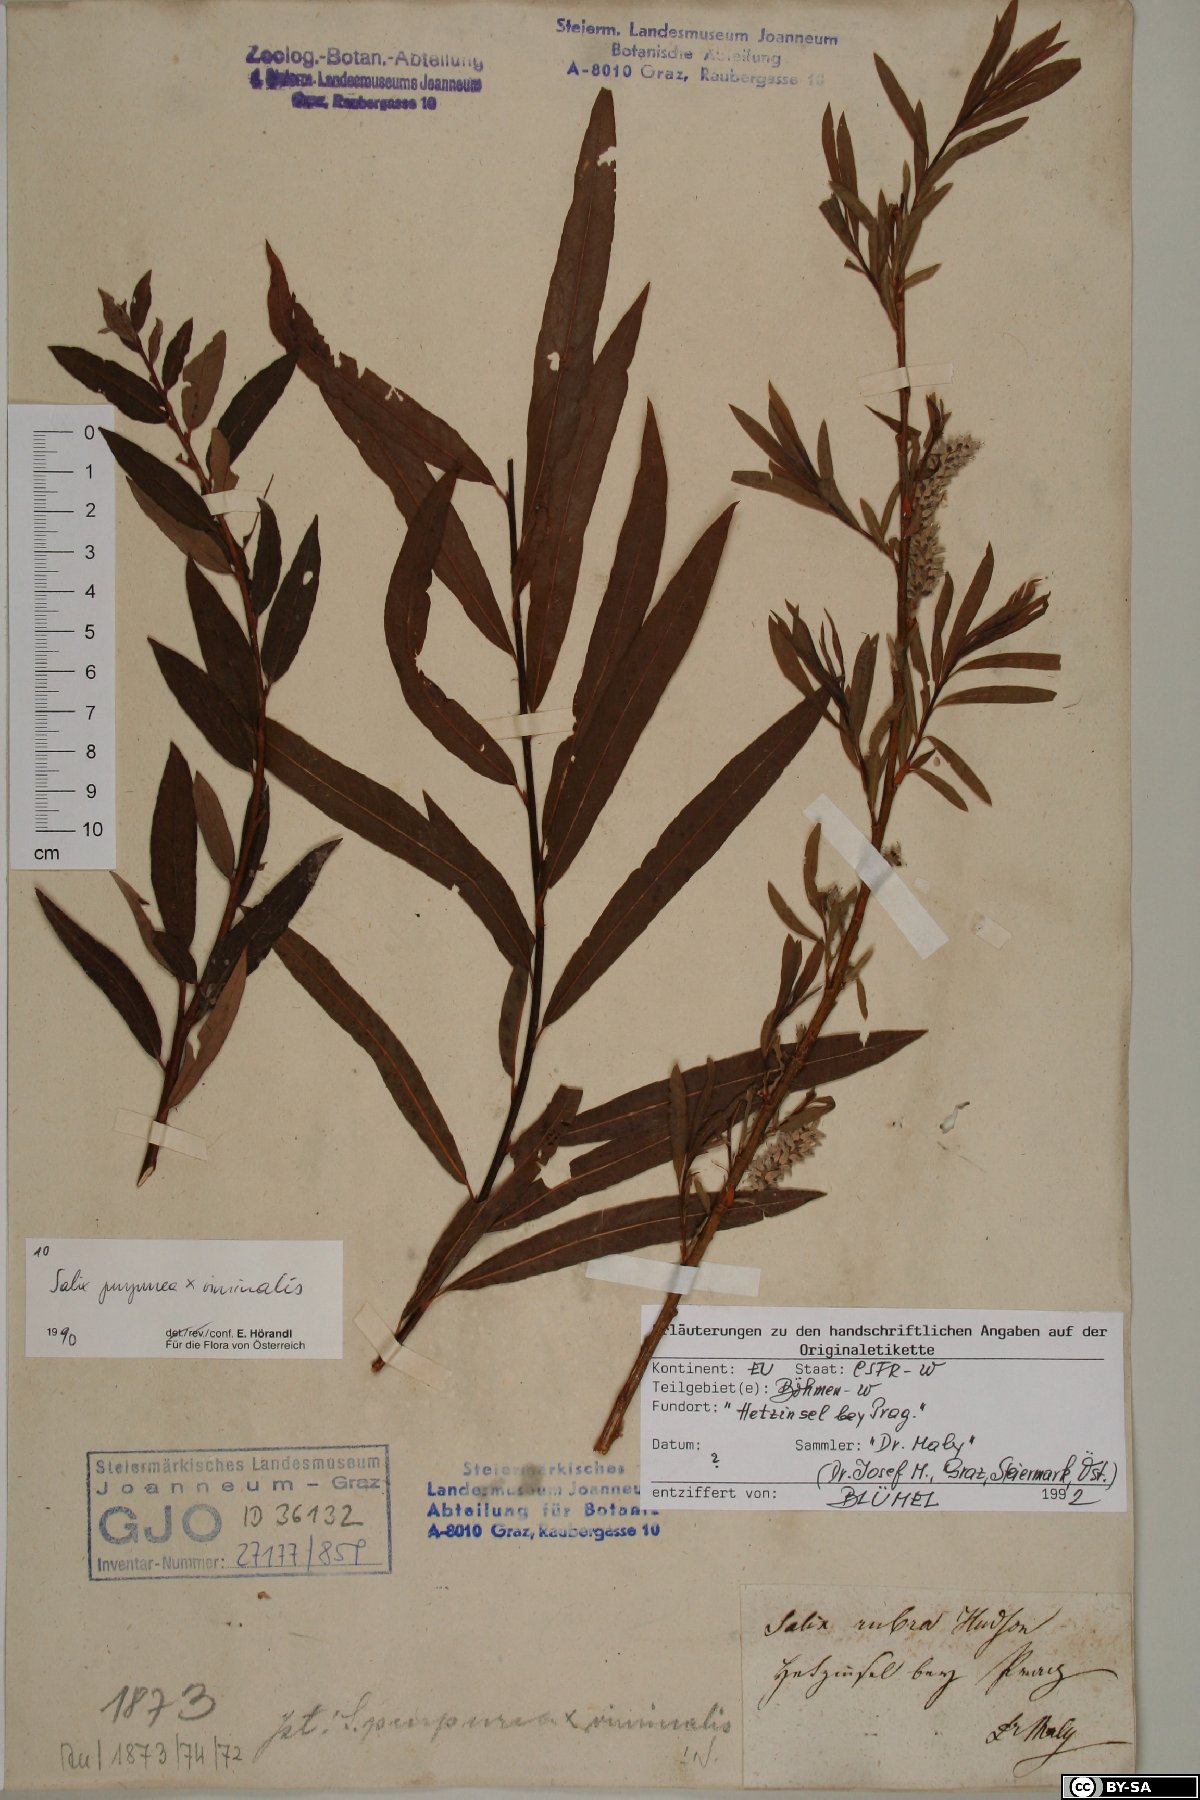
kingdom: Plantae
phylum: Tracheophyta
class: Magnoliopsida
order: Malpighiales
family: Salicaceae
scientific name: Salicaceae
